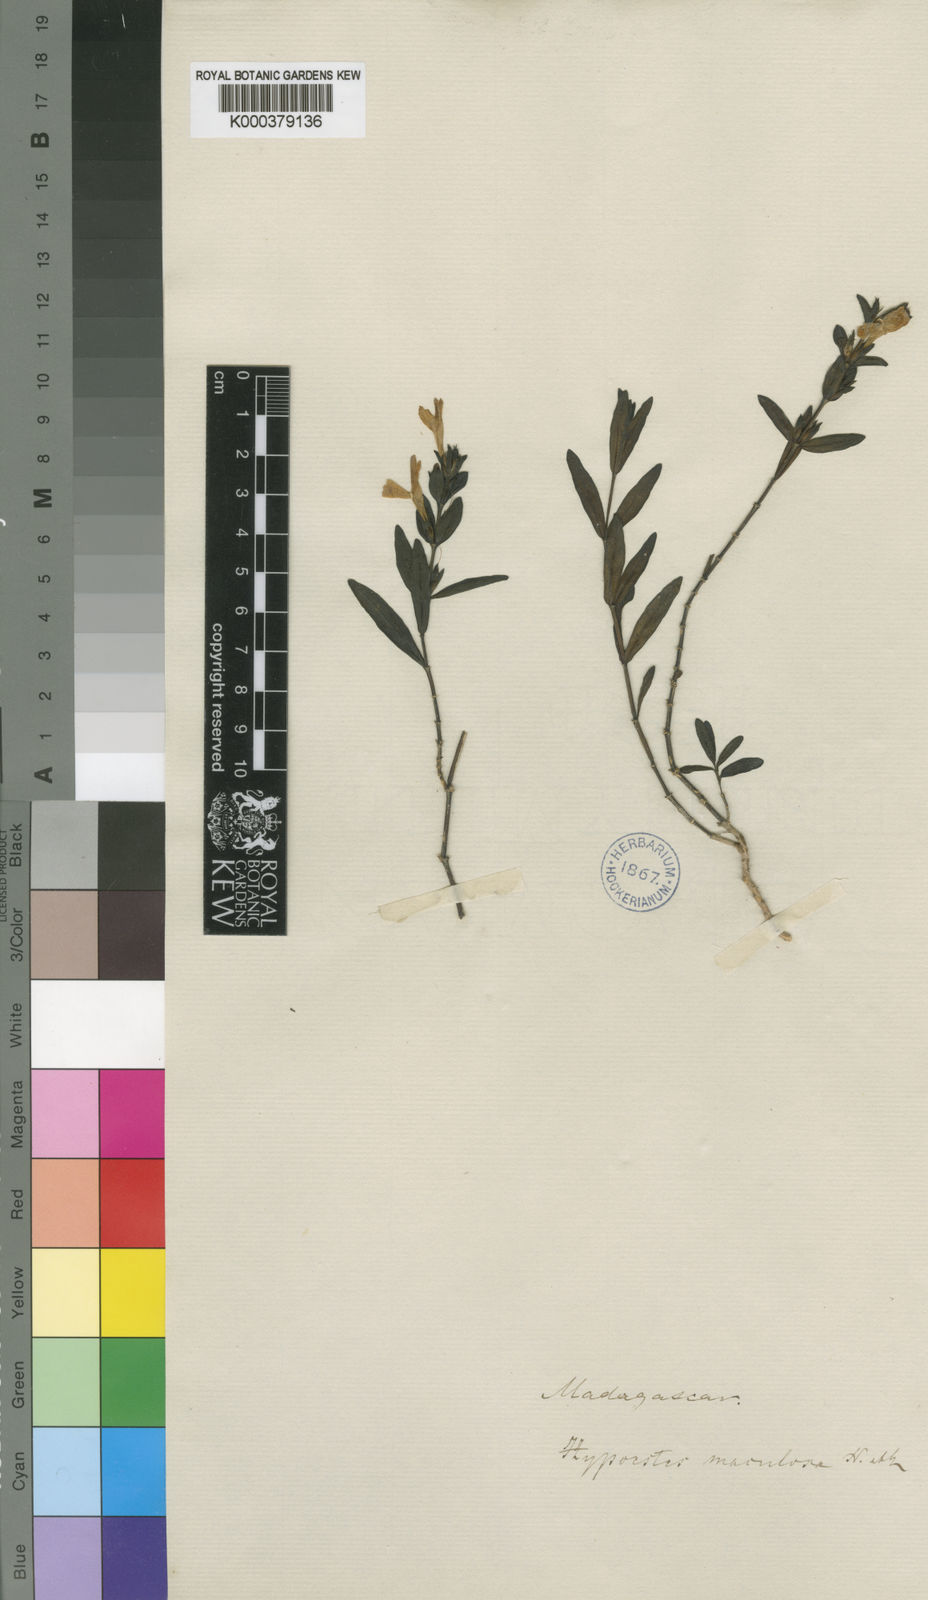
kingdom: Plantae
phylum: Tracheophyta
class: Magnoliopsida
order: Lamiales
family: Acanthaceae
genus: Hypoestes
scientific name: Hypoestes maculosa
